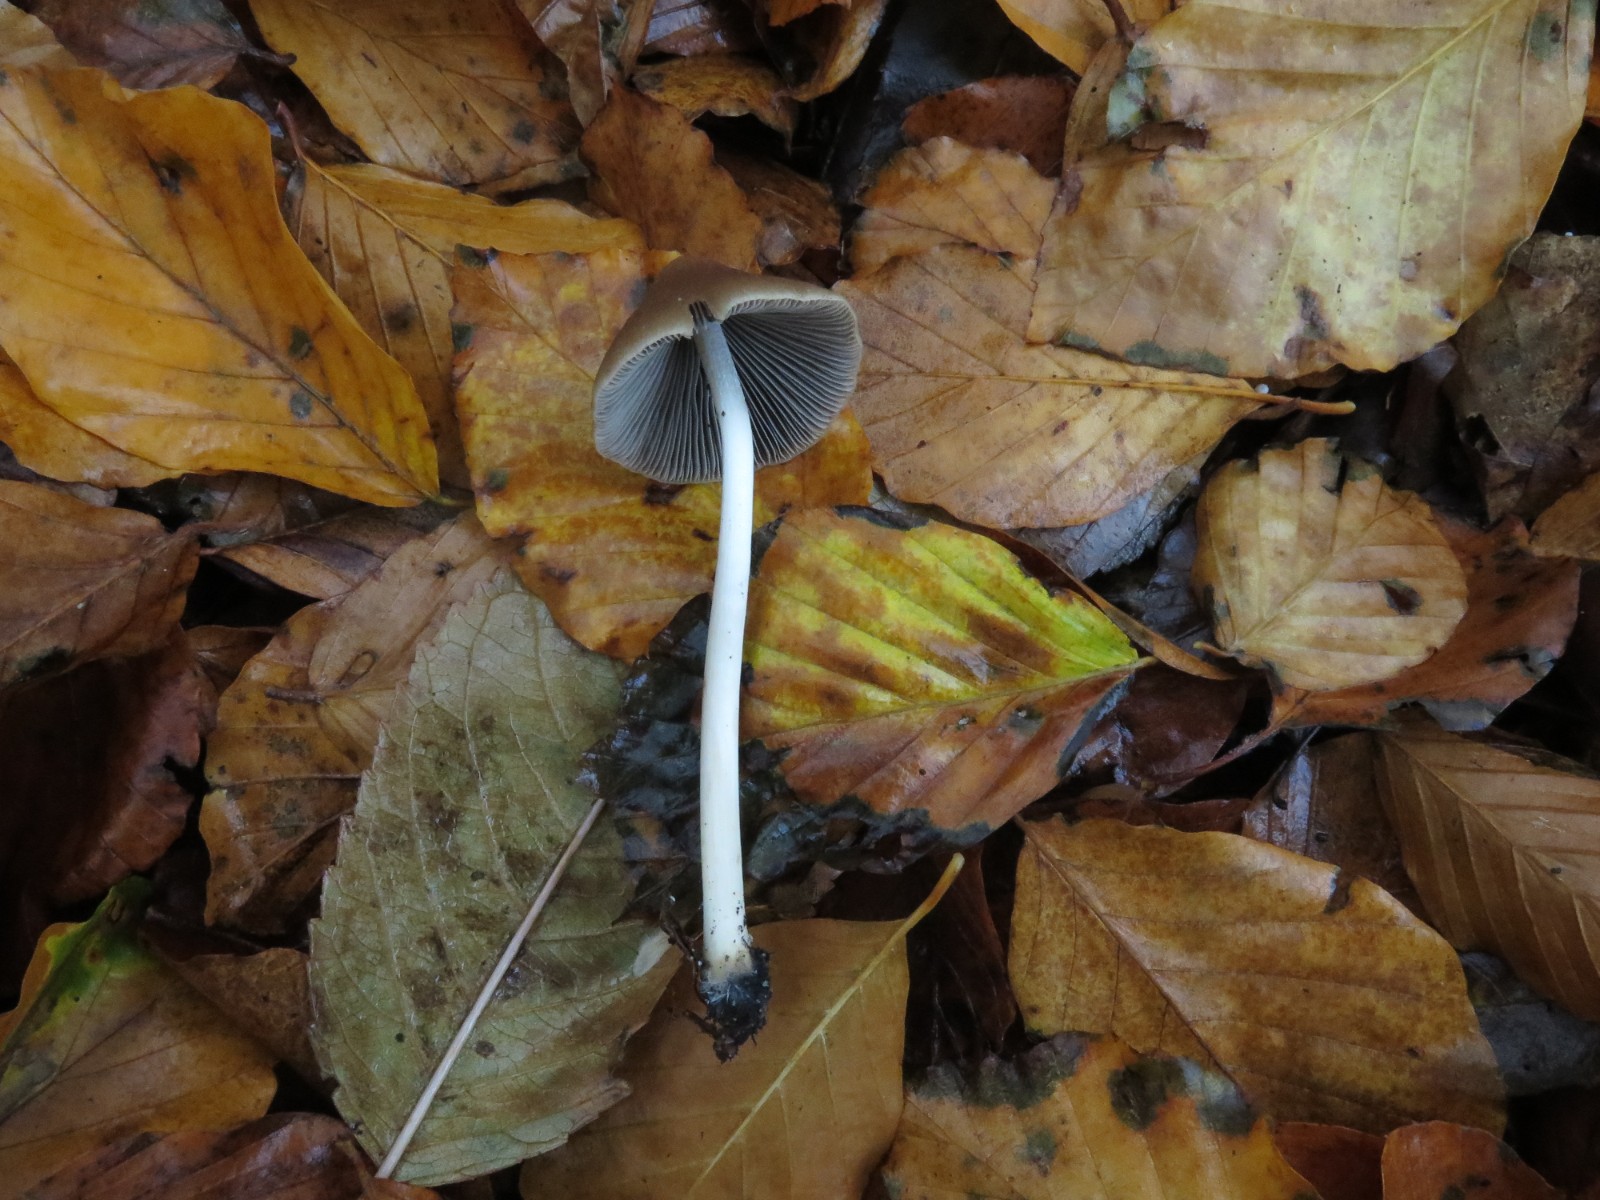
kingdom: Fungi
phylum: Basidiomycota
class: Agaricomycetes
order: Agaricales
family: Psathyrellaceae
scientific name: Psathyrellaceae
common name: mørkhatfamilien
